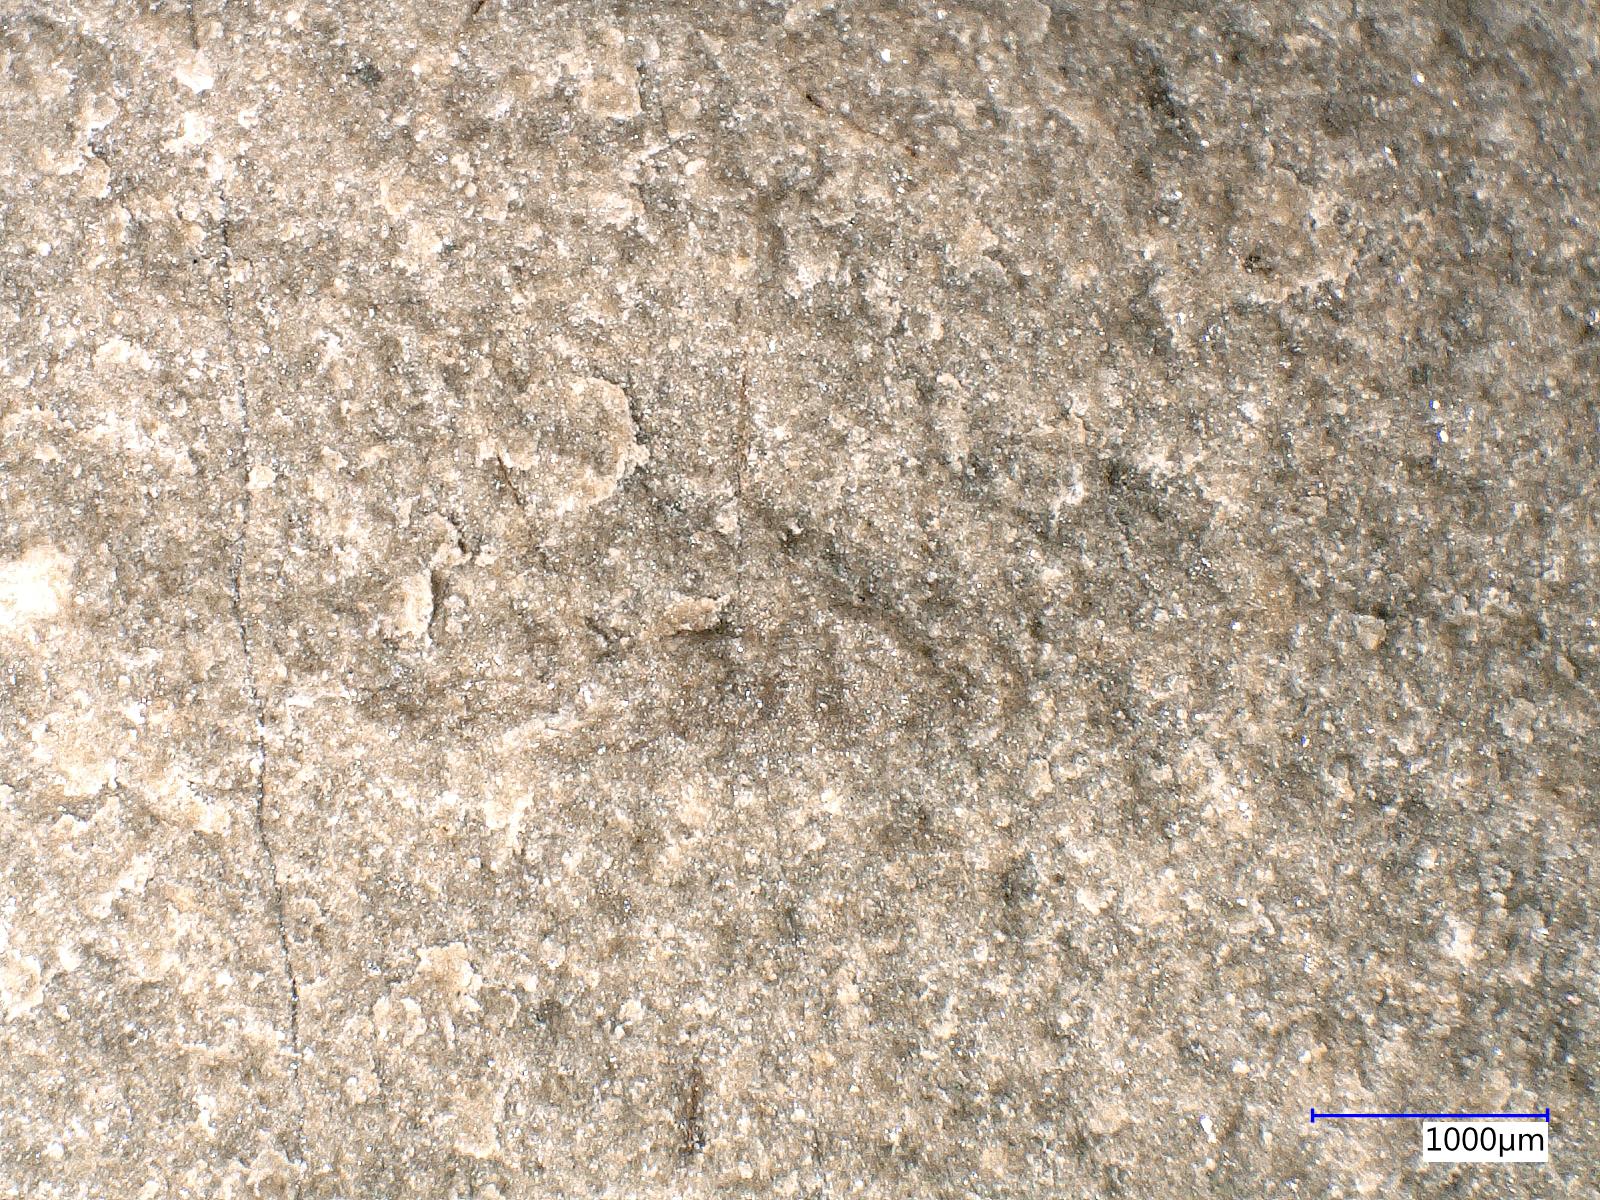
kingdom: Animalia
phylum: Arthropoda
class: Insecta
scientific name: Insecta
